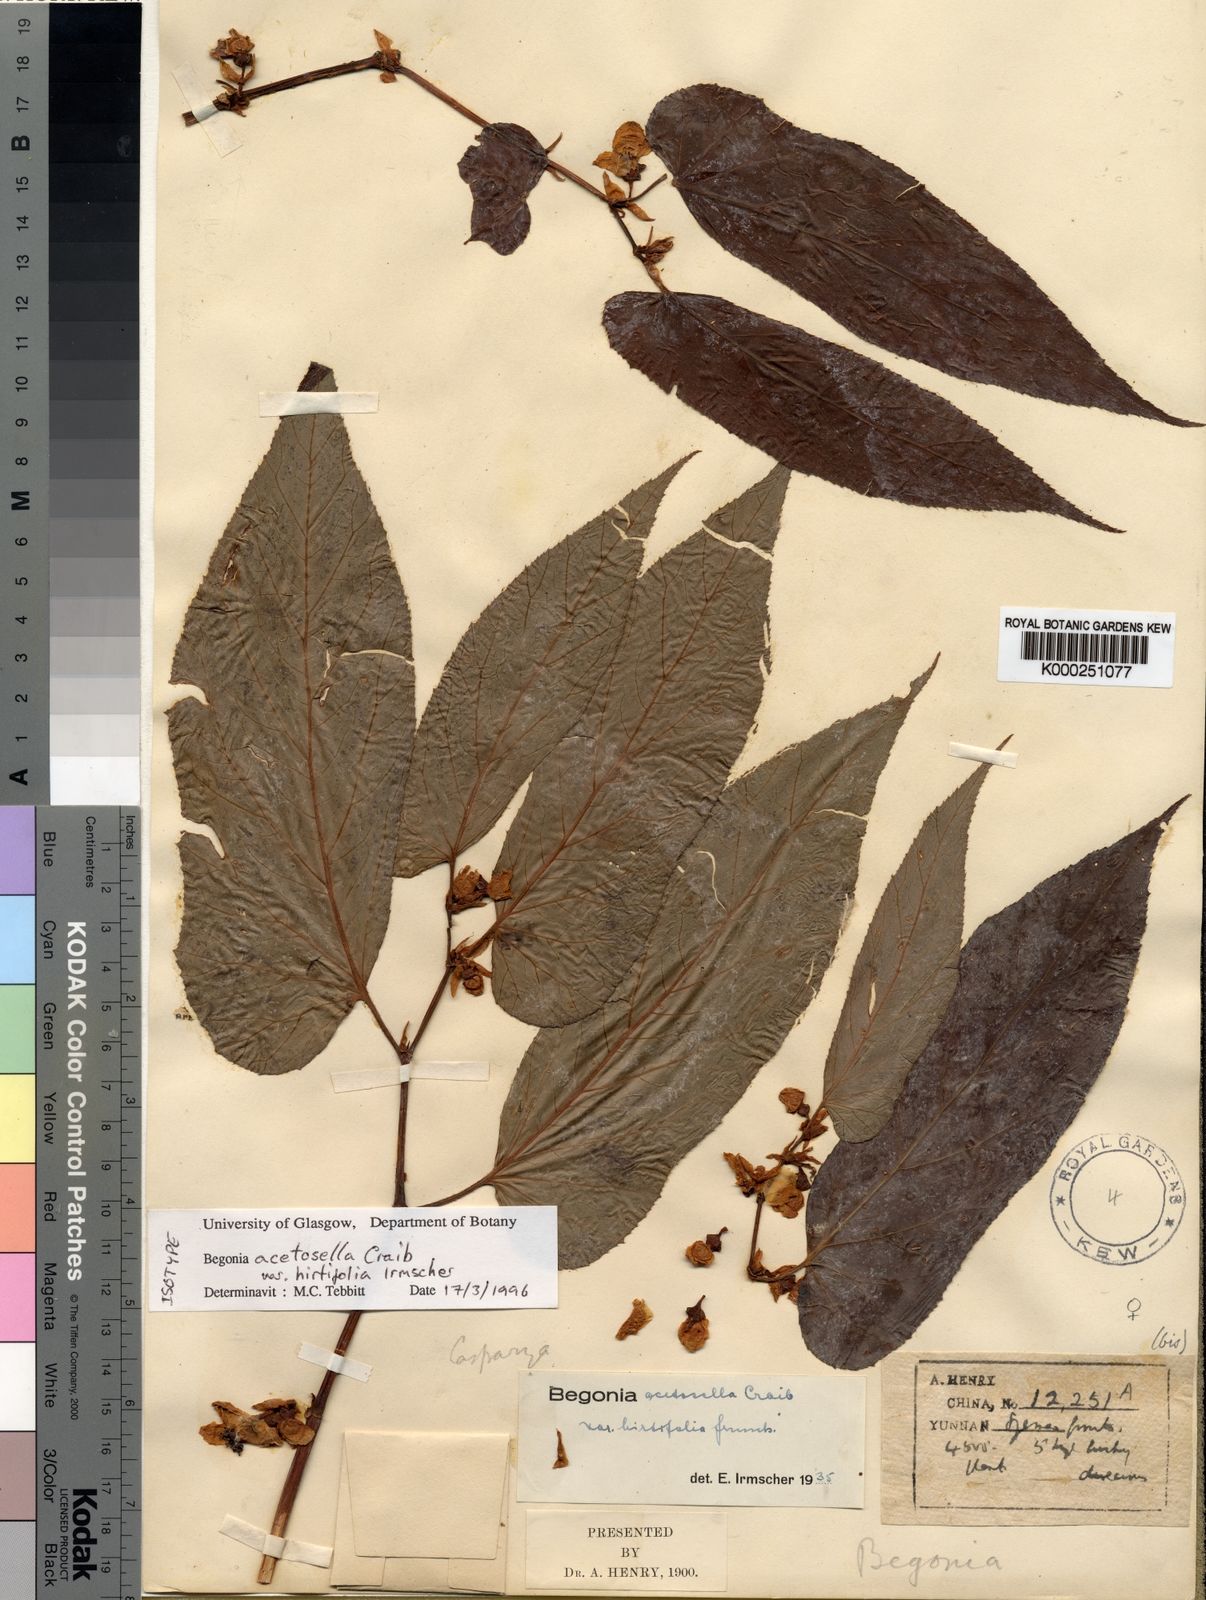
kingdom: Plantae
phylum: Tracheophyta
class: Magnoliopsida
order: Cucurbitales
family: Begoniaceae
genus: Begonia
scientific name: Begonia acetosella
